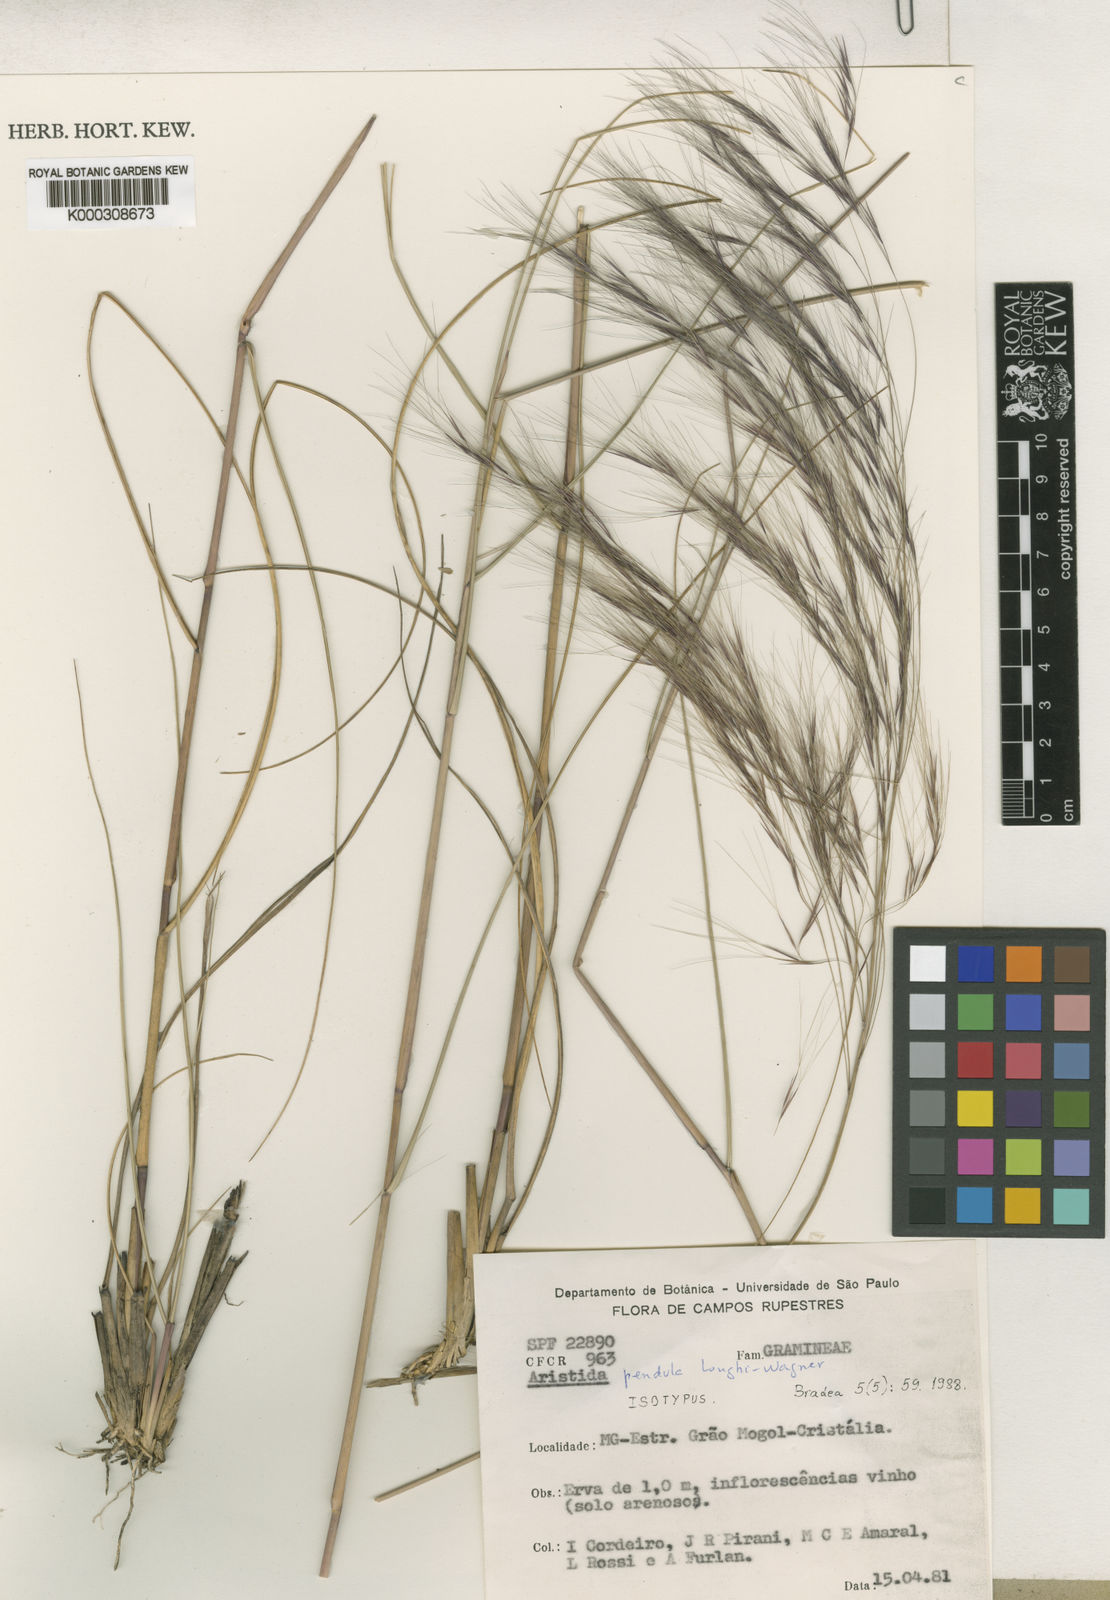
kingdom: Plantae
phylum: Tracheophyta
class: Liliopsida
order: Poales
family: Poaceae
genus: Aristida
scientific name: Aristida pendula
